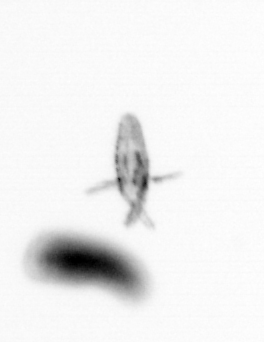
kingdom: Animalia
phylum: Arthropoda
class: Copepoda
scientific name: Copepoda
